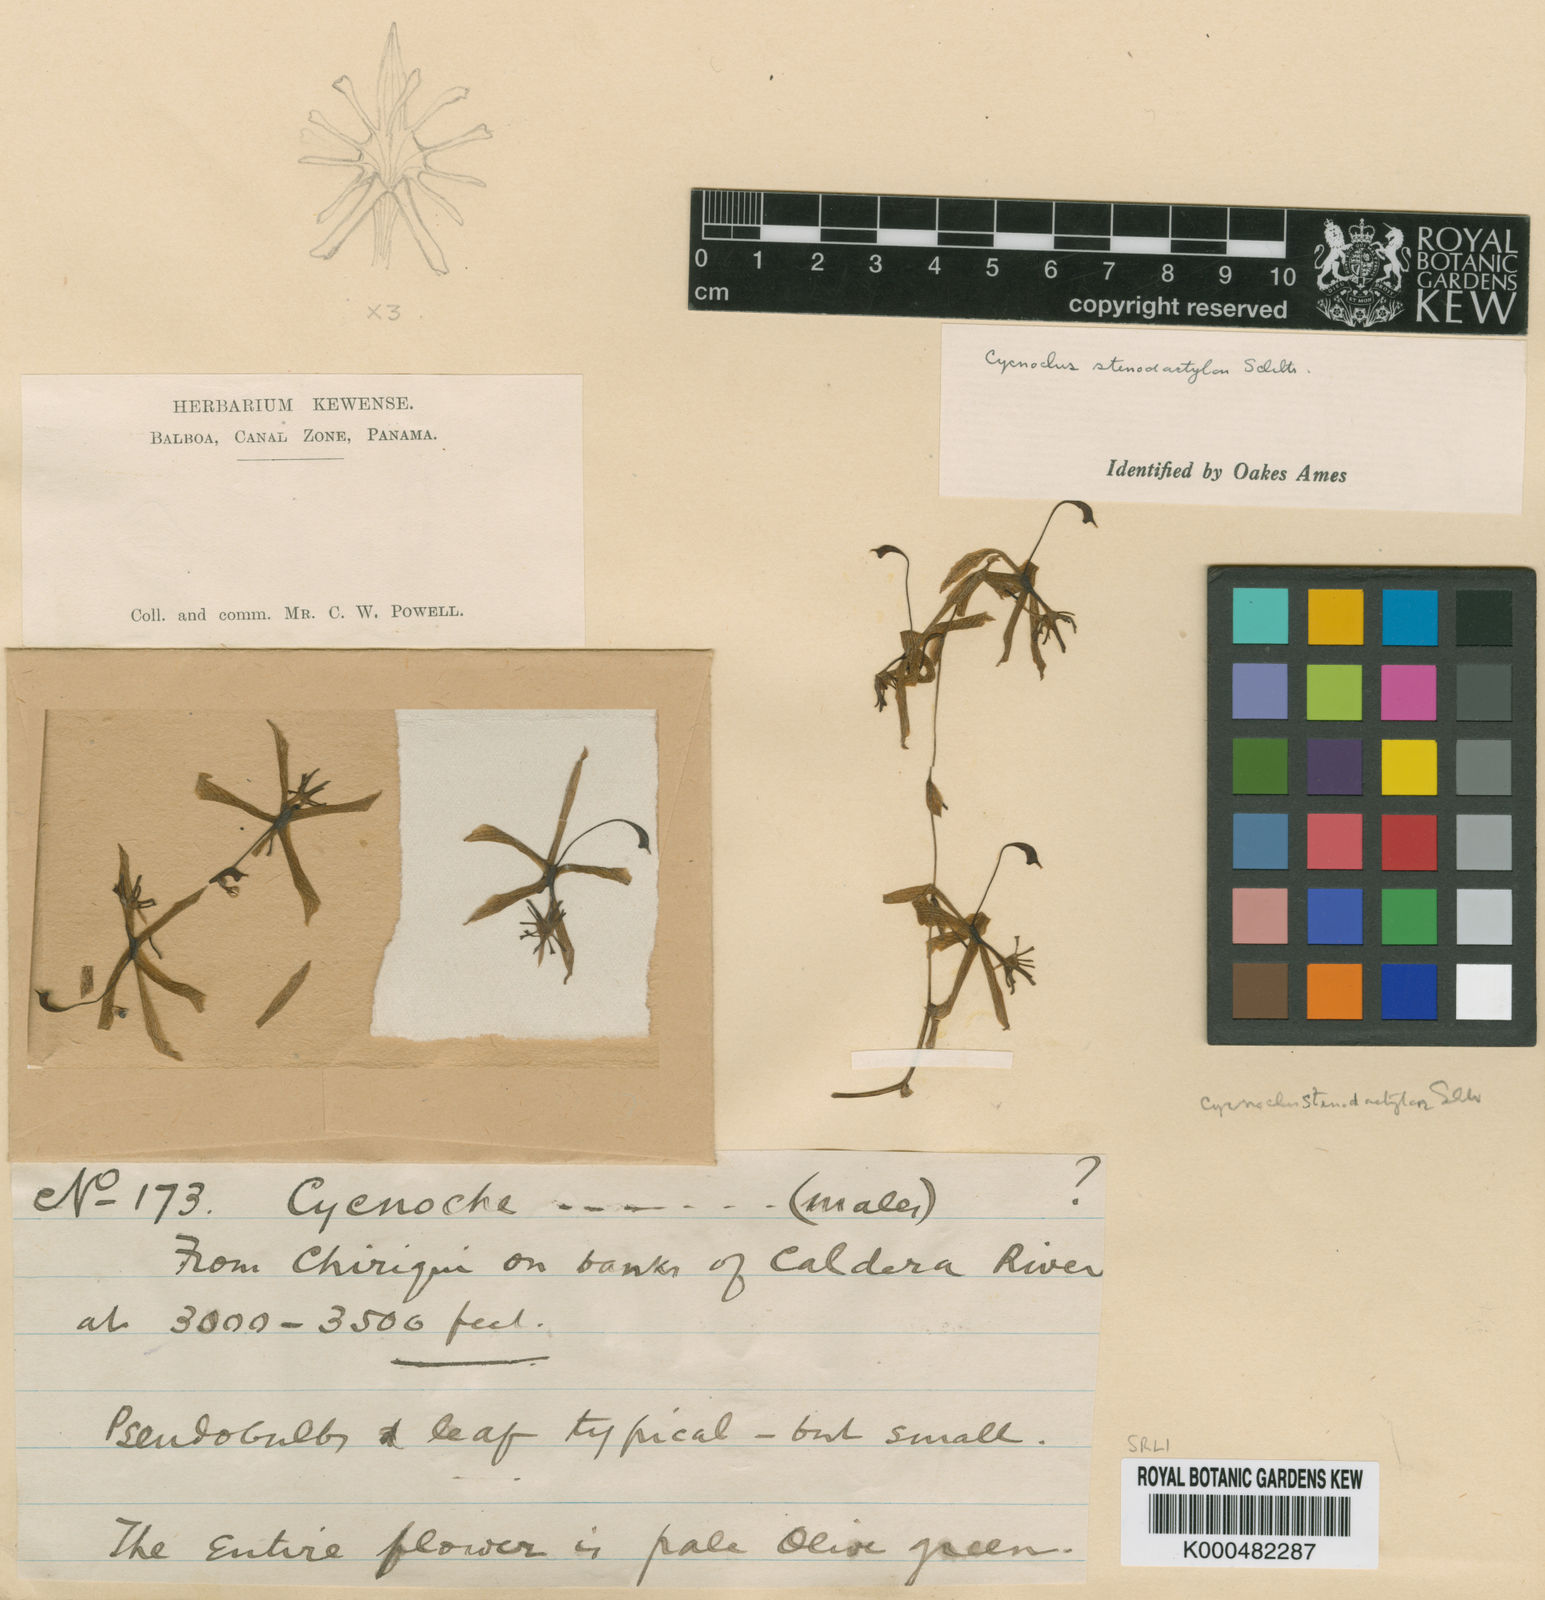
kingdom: Plantae
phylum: Tracheophyta
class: Liliopsida
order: Asparagales
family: Orchidaceae
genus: Cycnoches
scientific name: Cycnoches stenodactylon
